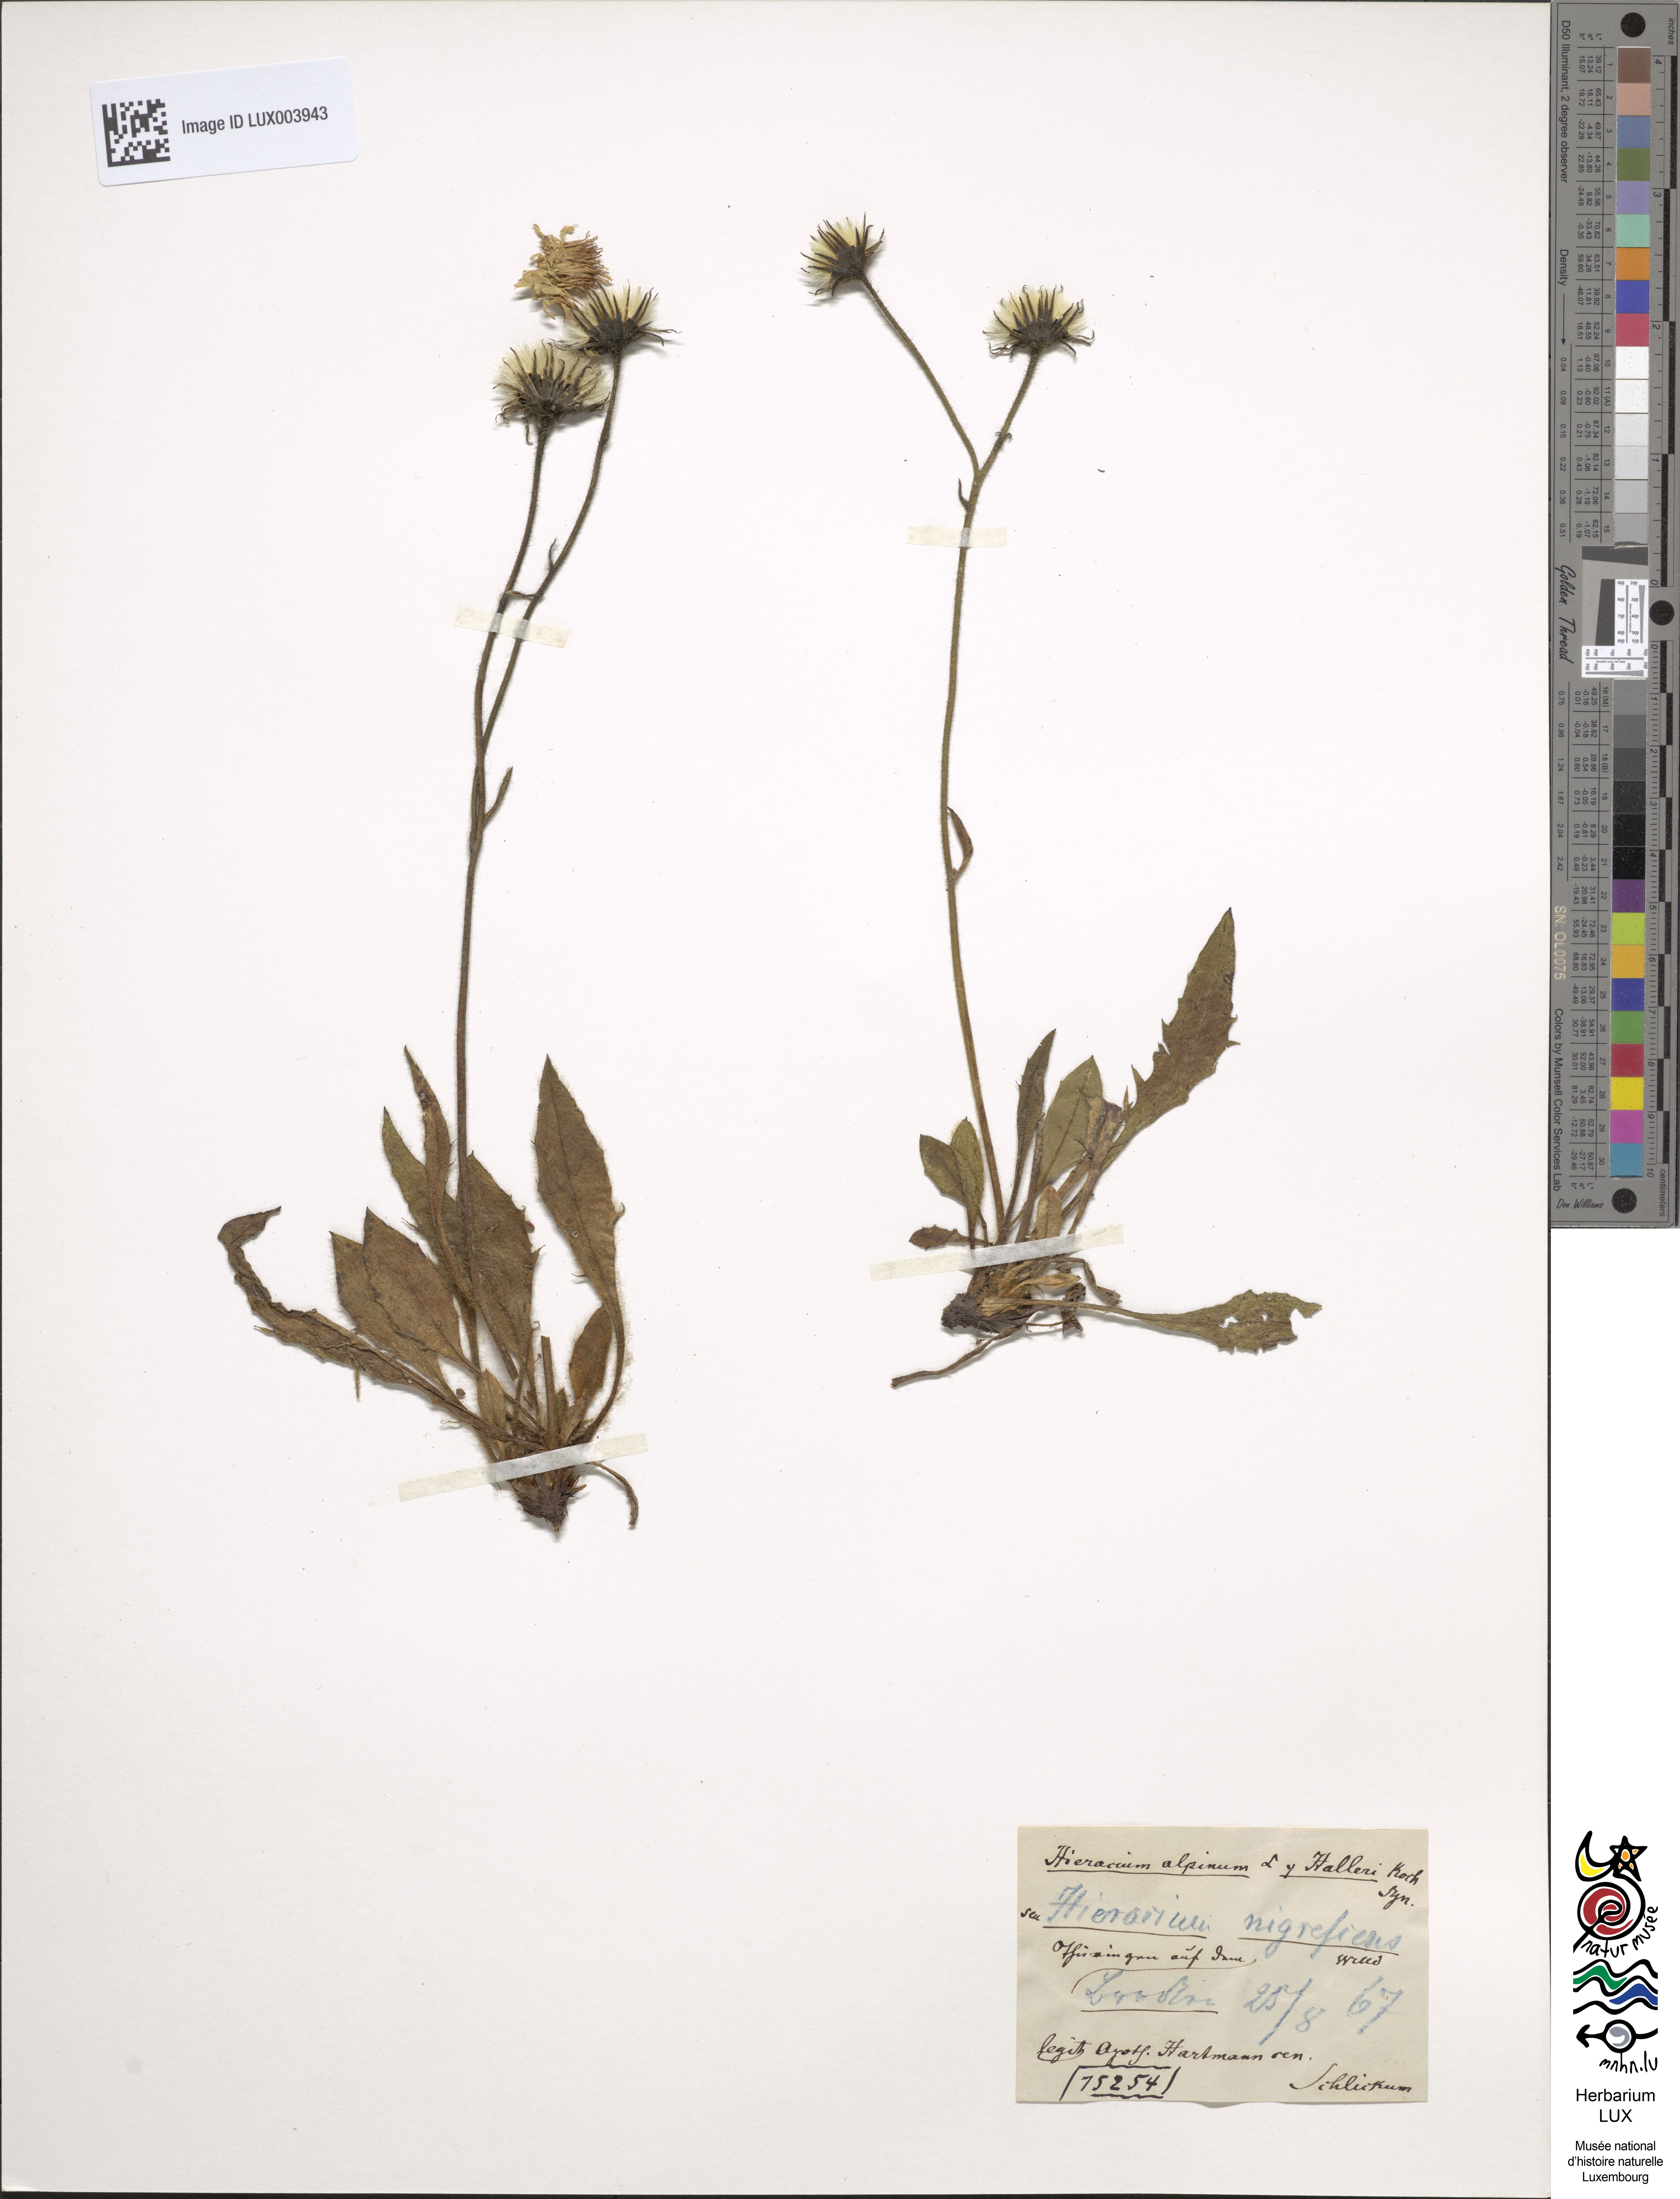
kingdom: Plantae
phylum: Tracheophyta
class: Magnoliopsida
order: Asterales
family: Asteraceae
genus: Hieracium
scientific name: Hieracium nigrescens
